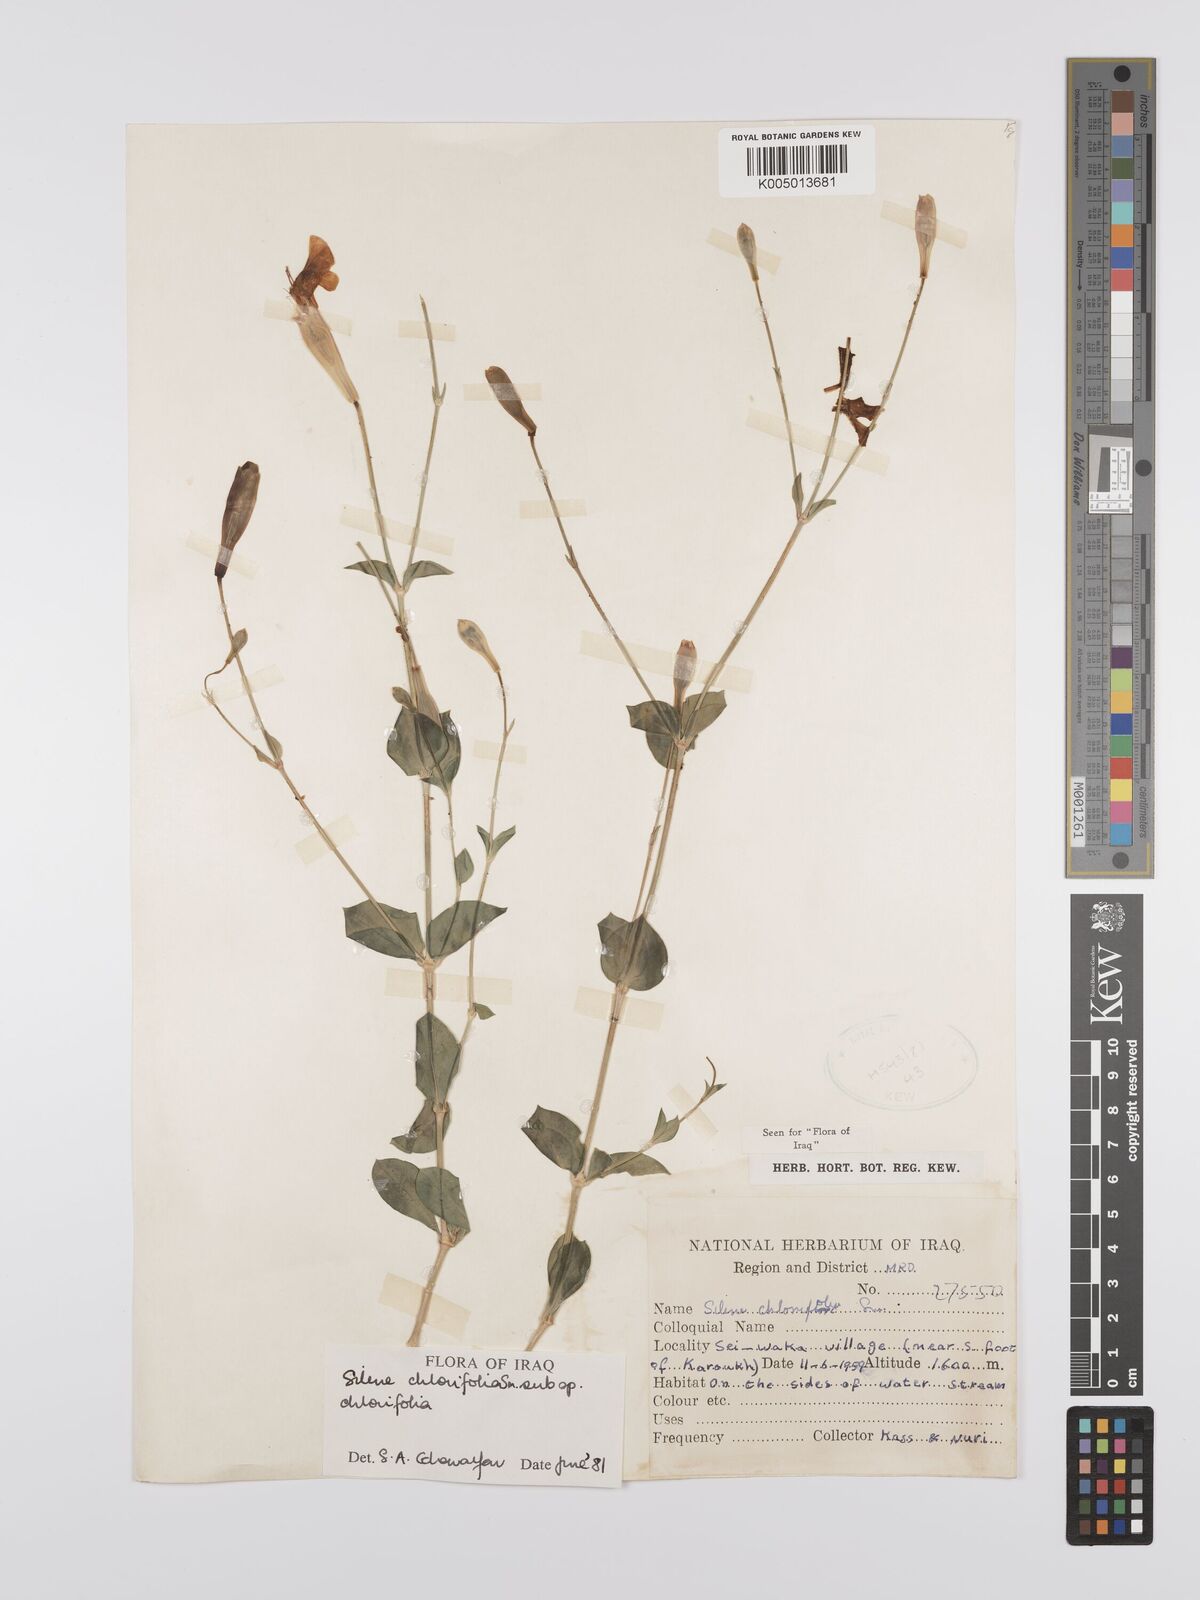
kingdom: Plantae
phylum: Tracheophyta
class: Magnoliopsida
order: Caryophyllales
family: Caryophyllaceae
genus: Silene
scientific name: Silene chlorifolia
